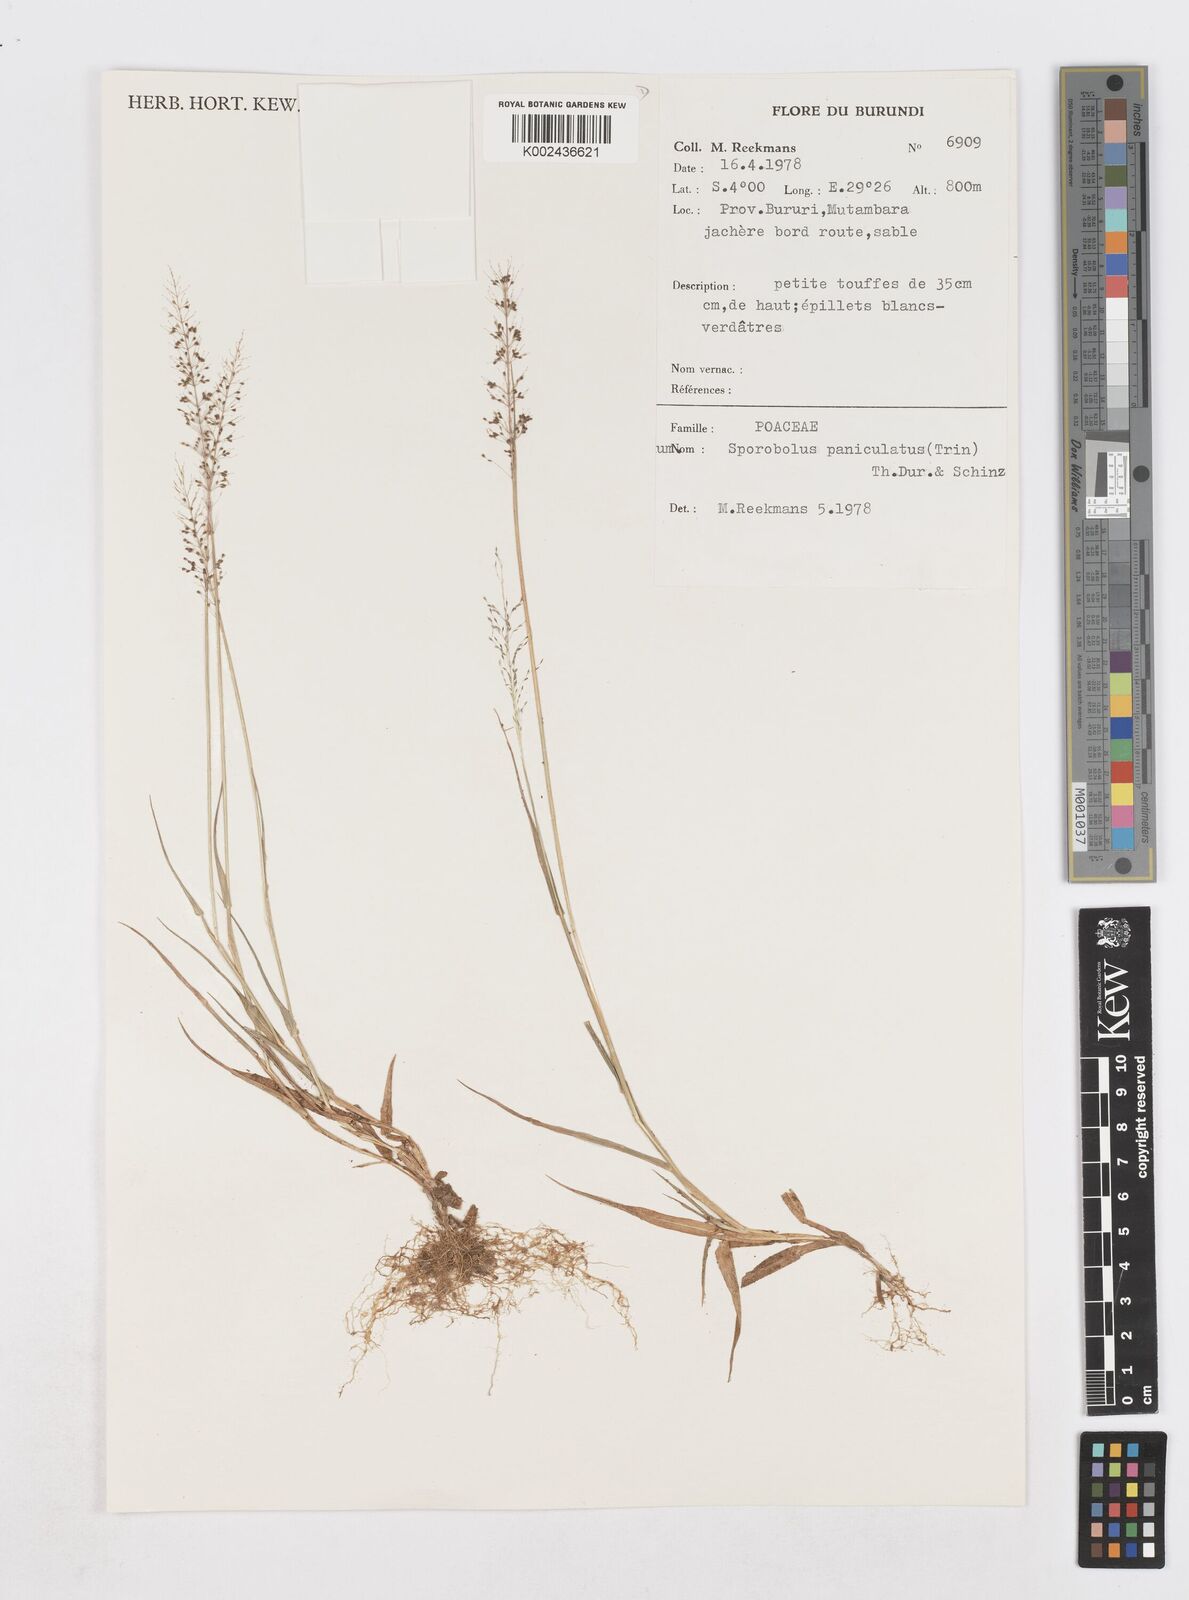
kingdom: Plantae
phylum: Tracheophyta
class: Liliopsida
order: Poales
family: Poaceae
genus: Sporobolus
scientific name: Sporobolus paniculatus
